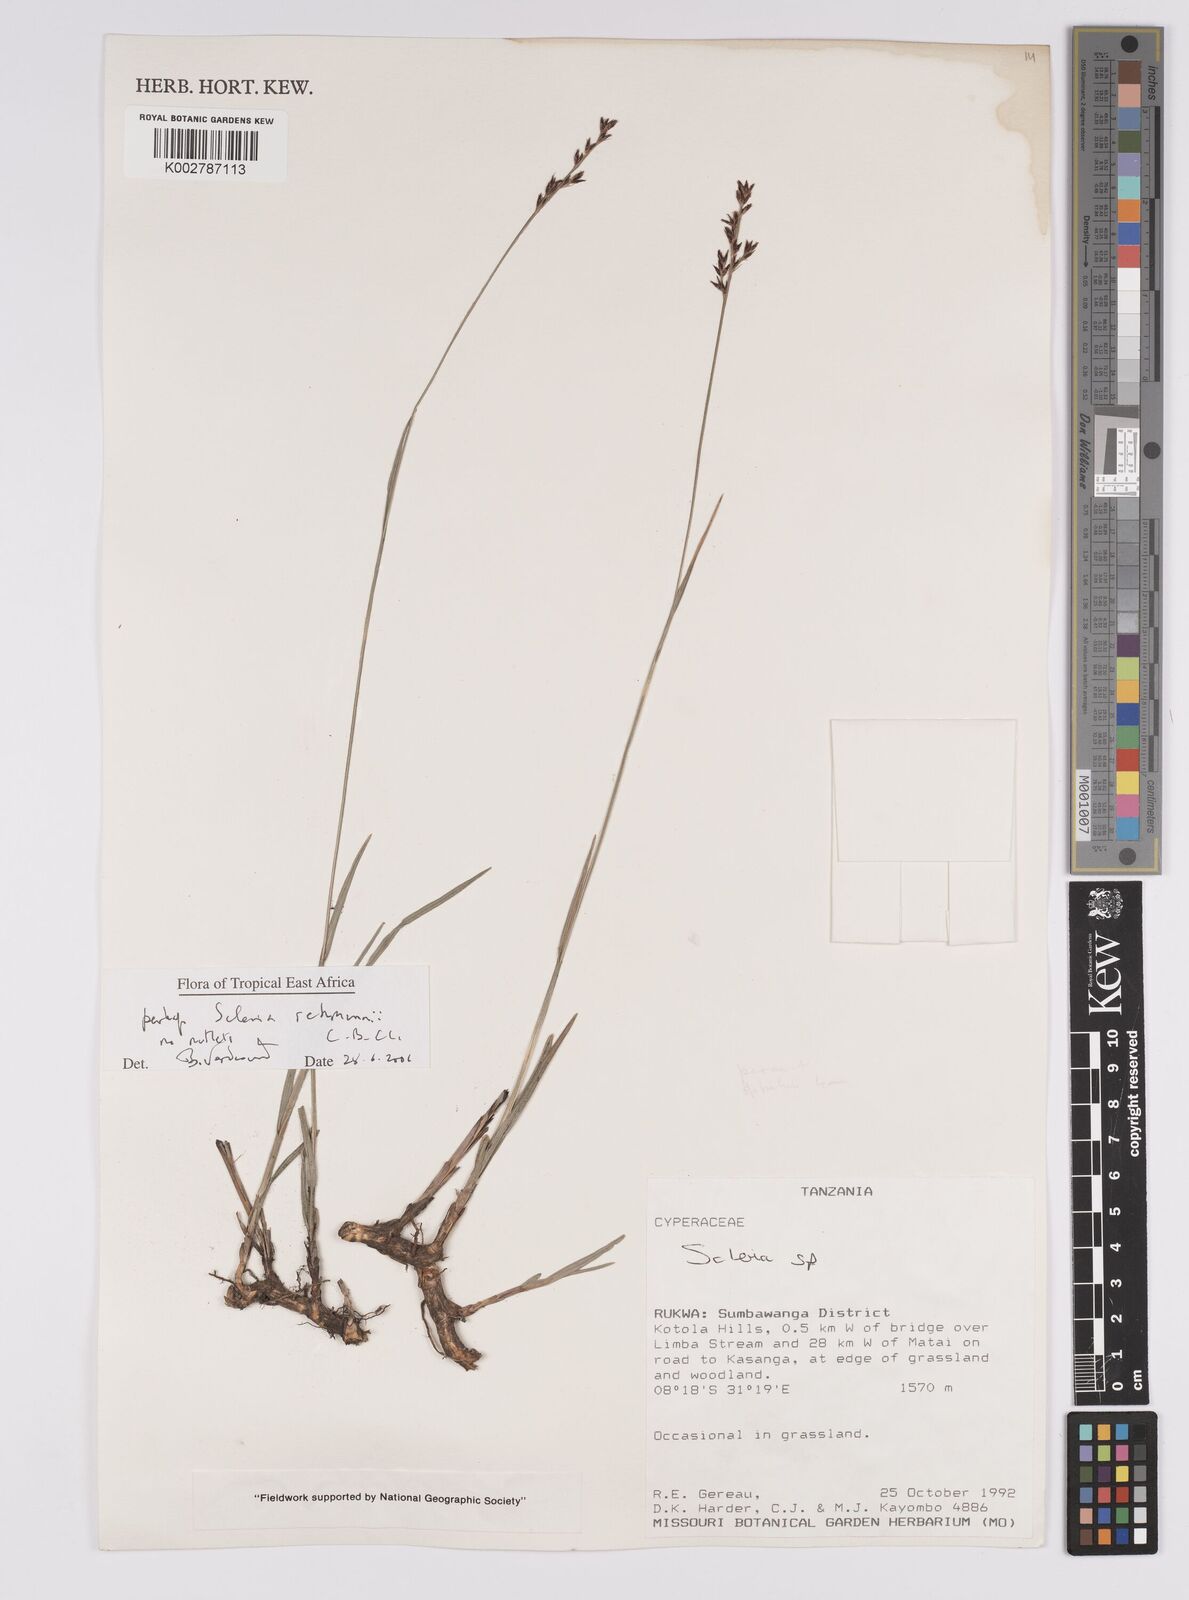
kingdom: Plantae
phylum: Tracheophyta
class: Liliopsida
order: Poales
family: Cyperaceae
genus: Scleria
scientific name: Scleria rehmannii
